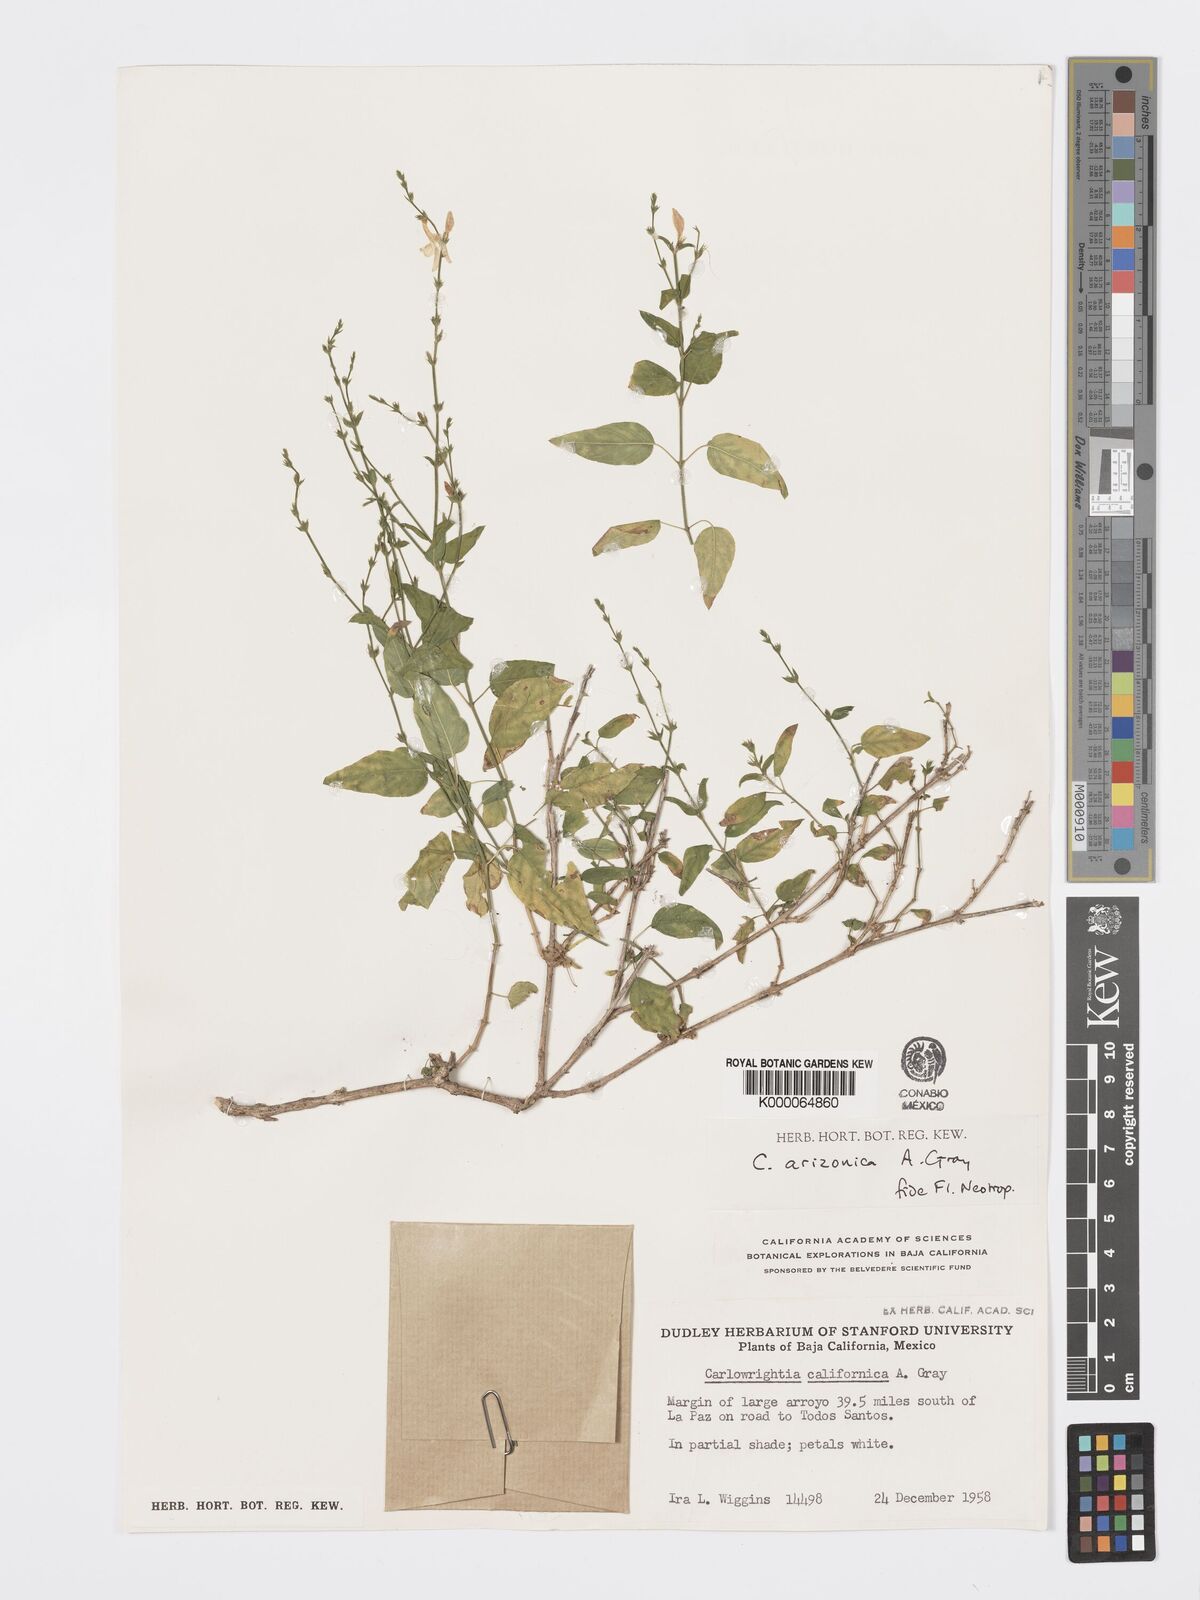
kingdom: Plantae
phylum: Tracheophyta
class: Magnoliopsida
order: Lamiales
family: Acanthaceae
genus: Carlowrightia
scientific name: Carlowrightia arizonica
